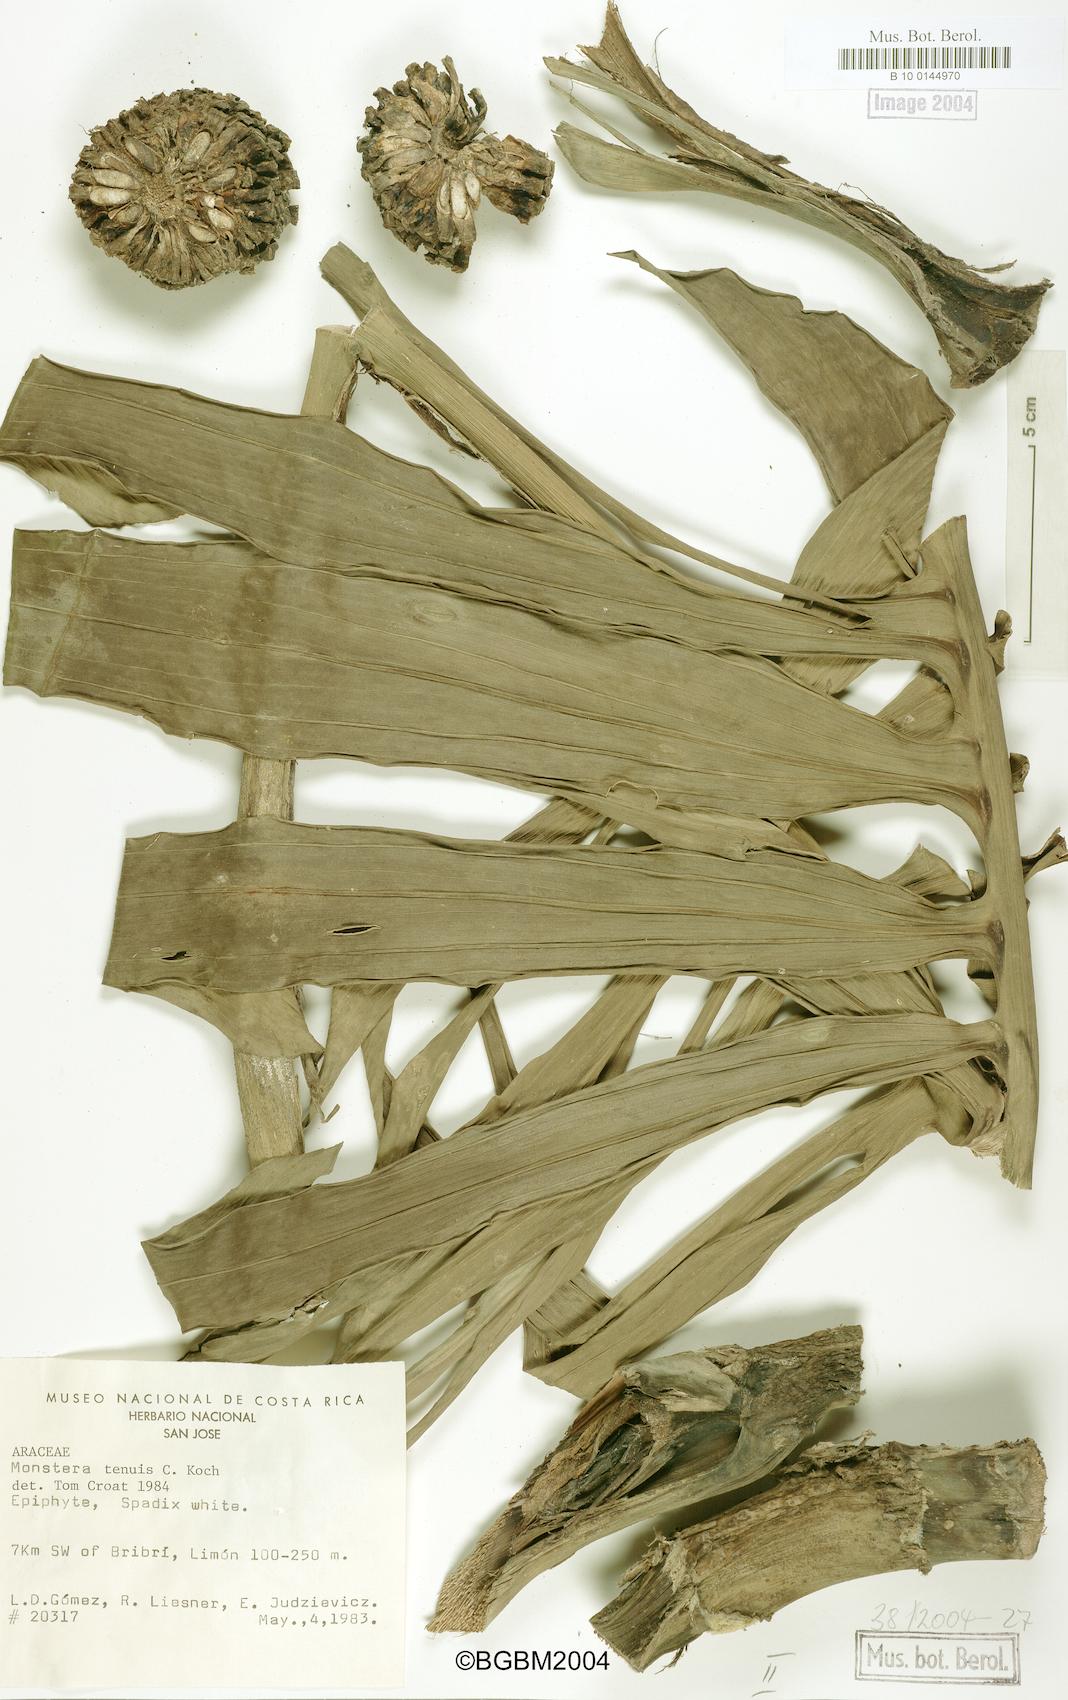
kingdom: Plantae
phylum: Tracheophyta
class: Liliopsida
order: Alismatales
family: Araceae
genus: Monstera
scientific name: Monstera tenuis
